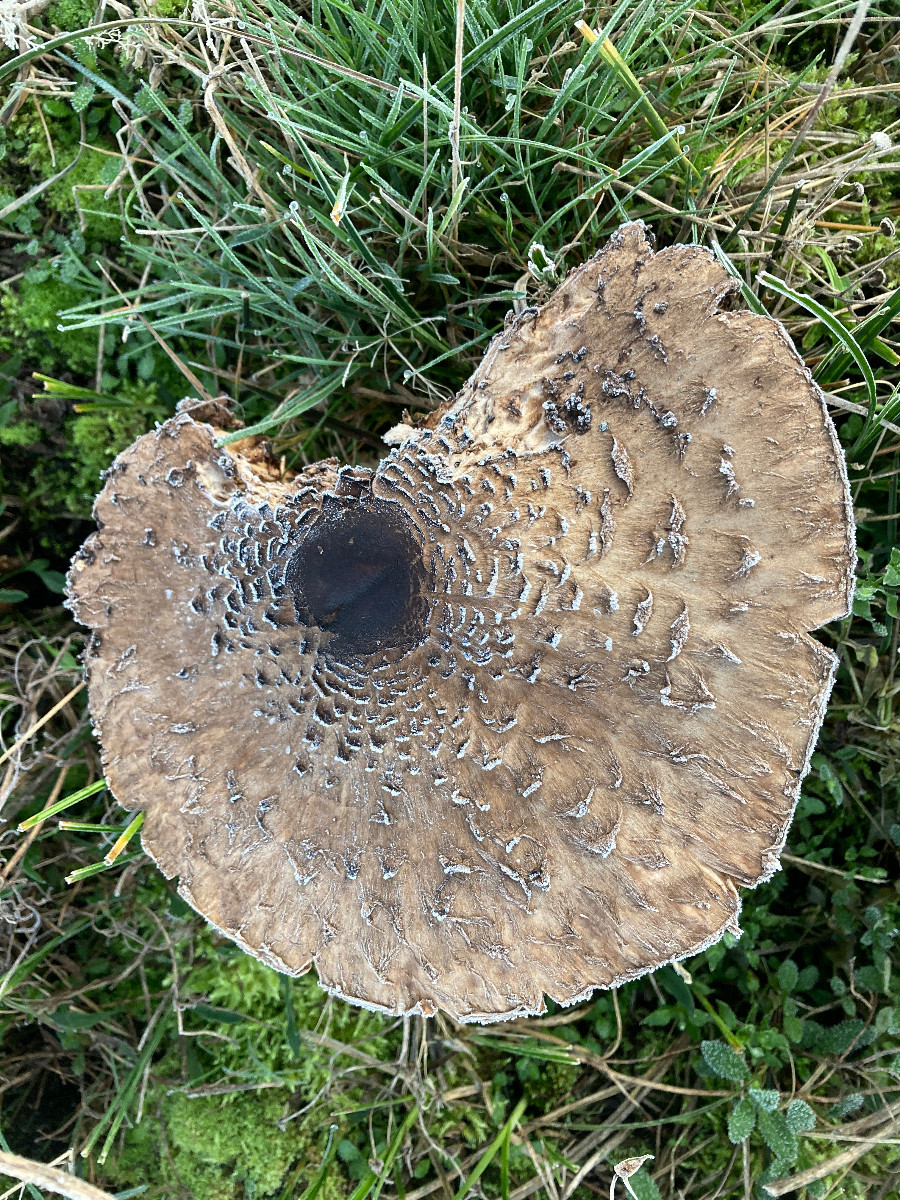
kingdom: Fungi
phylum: Basidiomycota
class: Agaricomycetes
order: Agaricales
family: Agaricaceae
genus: Macrolepiota
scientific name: Macrolepiota
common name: kæmpeparasolhat
